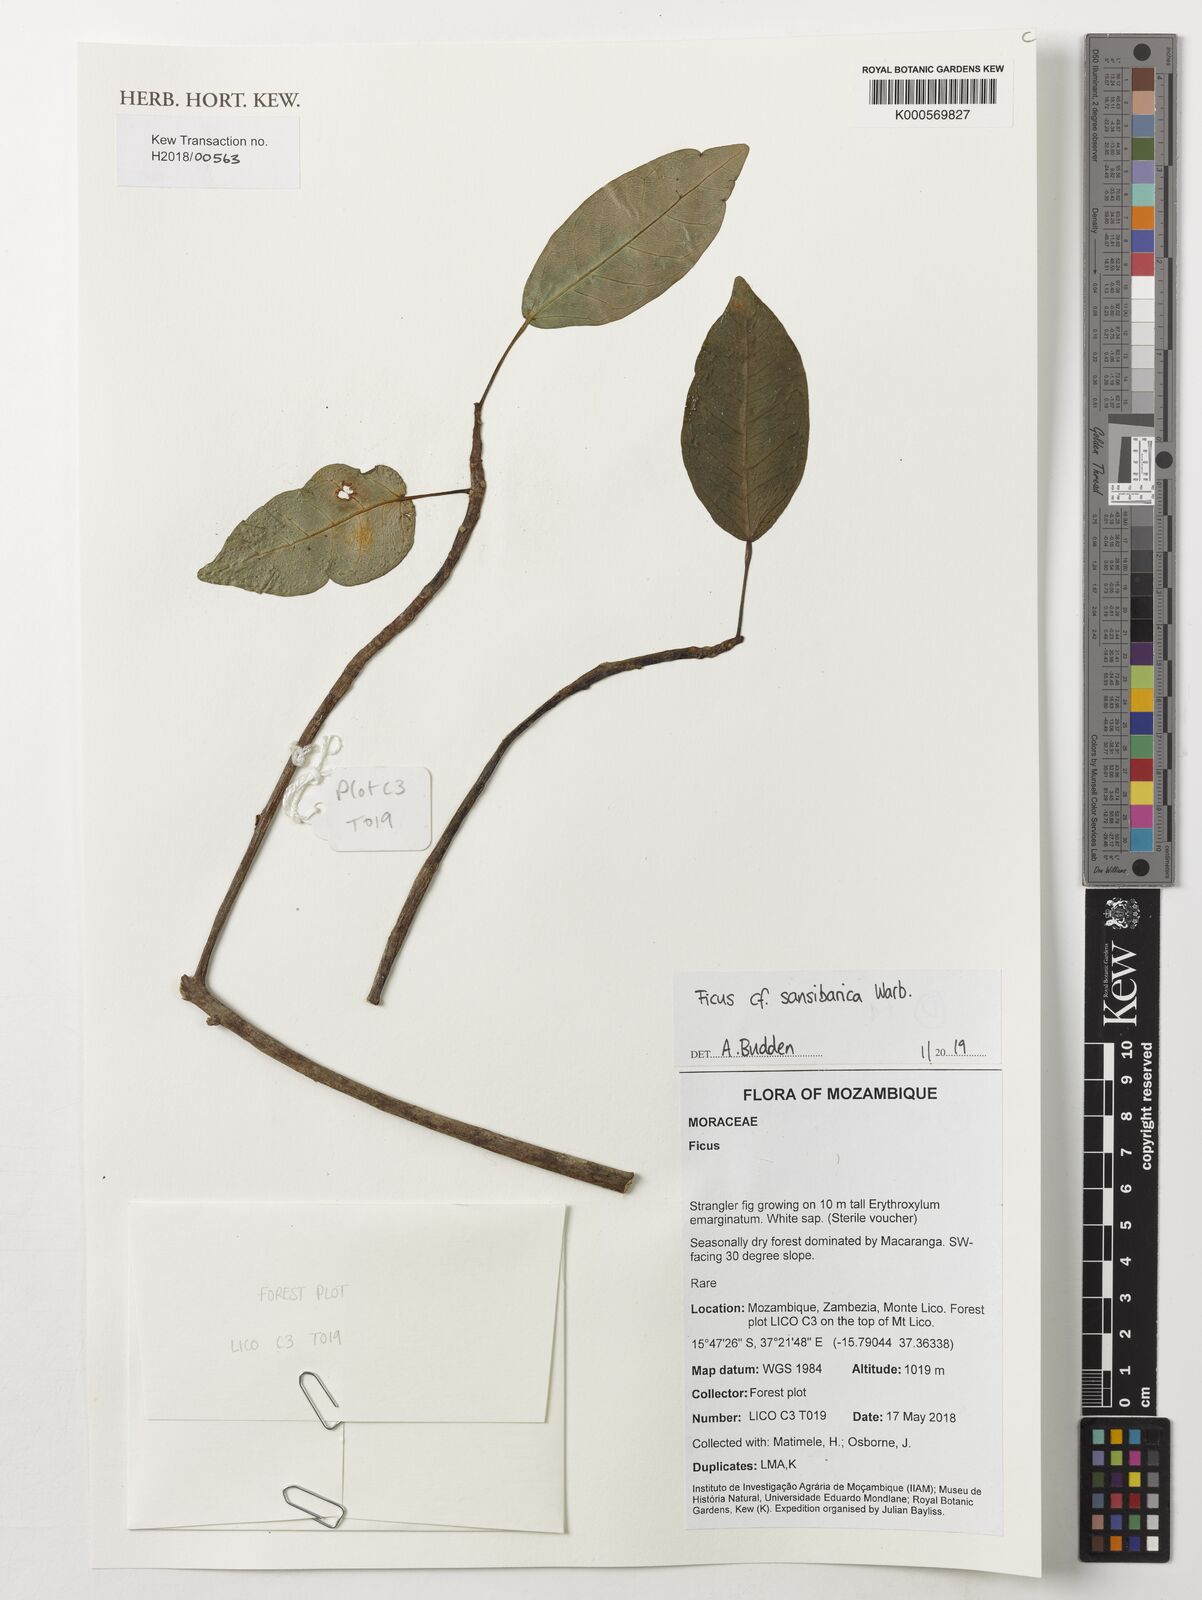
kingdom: Plantae
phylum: Tracheophyta
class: Magnoliopsida
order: Rosales
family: Moraceae
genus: Ficus
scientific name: Ficus sansibarica
